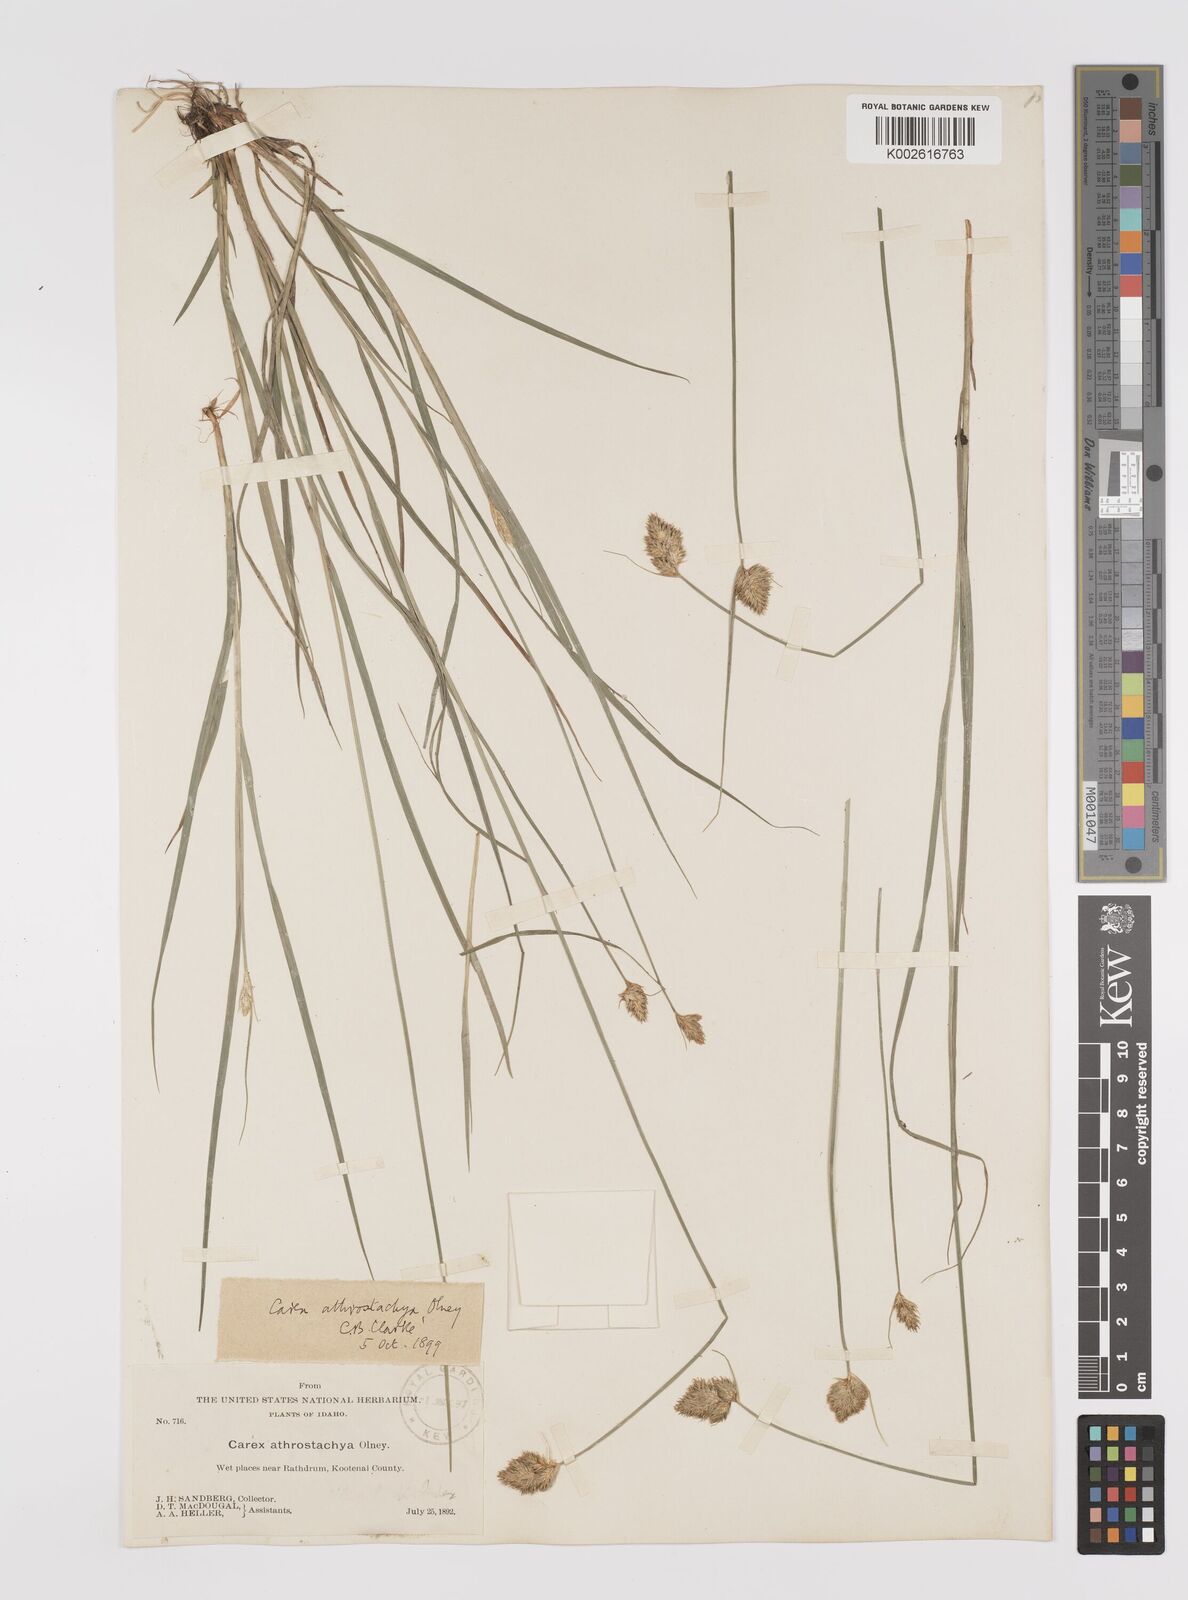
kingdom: Plantae
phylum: Tracheophyta
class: Liliopsida
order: Poales
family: Cyperaceae
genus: Carex
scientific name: Carex athrostachya
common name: Slenderbeak sedge
